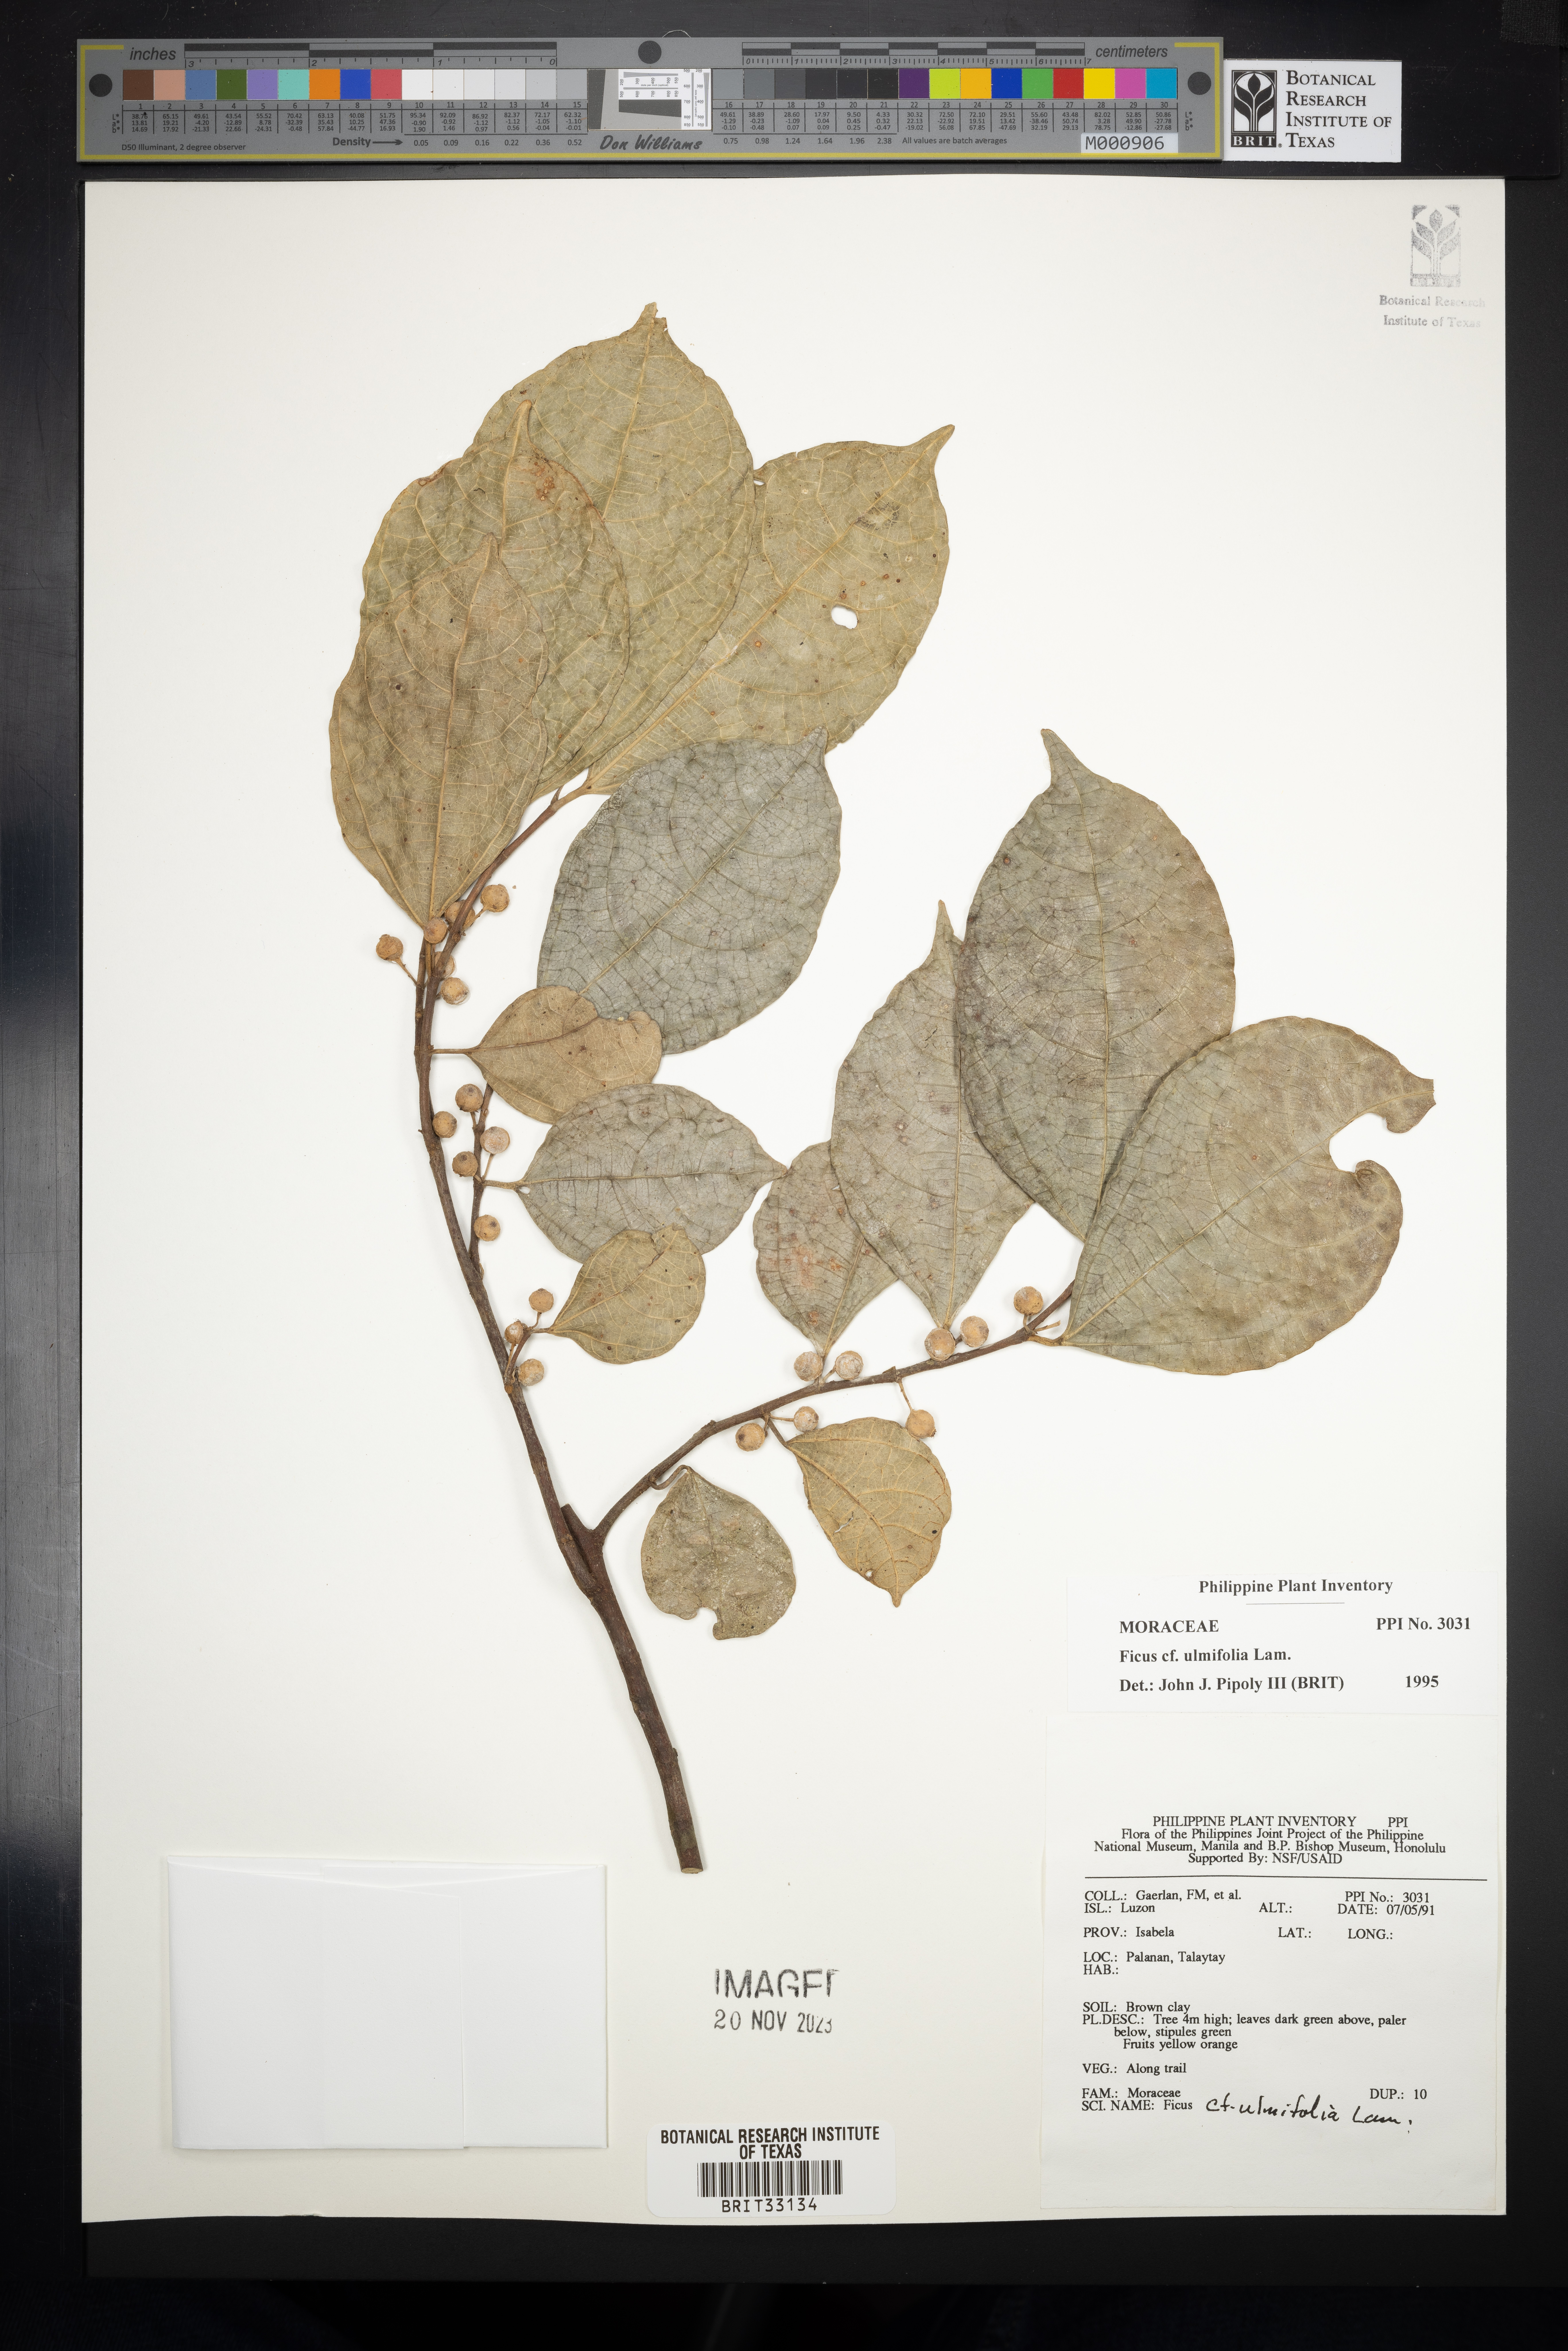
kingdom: Plantae
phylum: Tracheophyta
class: Magnoliopsida
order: Rosales
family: Moraceae
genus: Ficus
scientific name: Ficus ulmifolia
